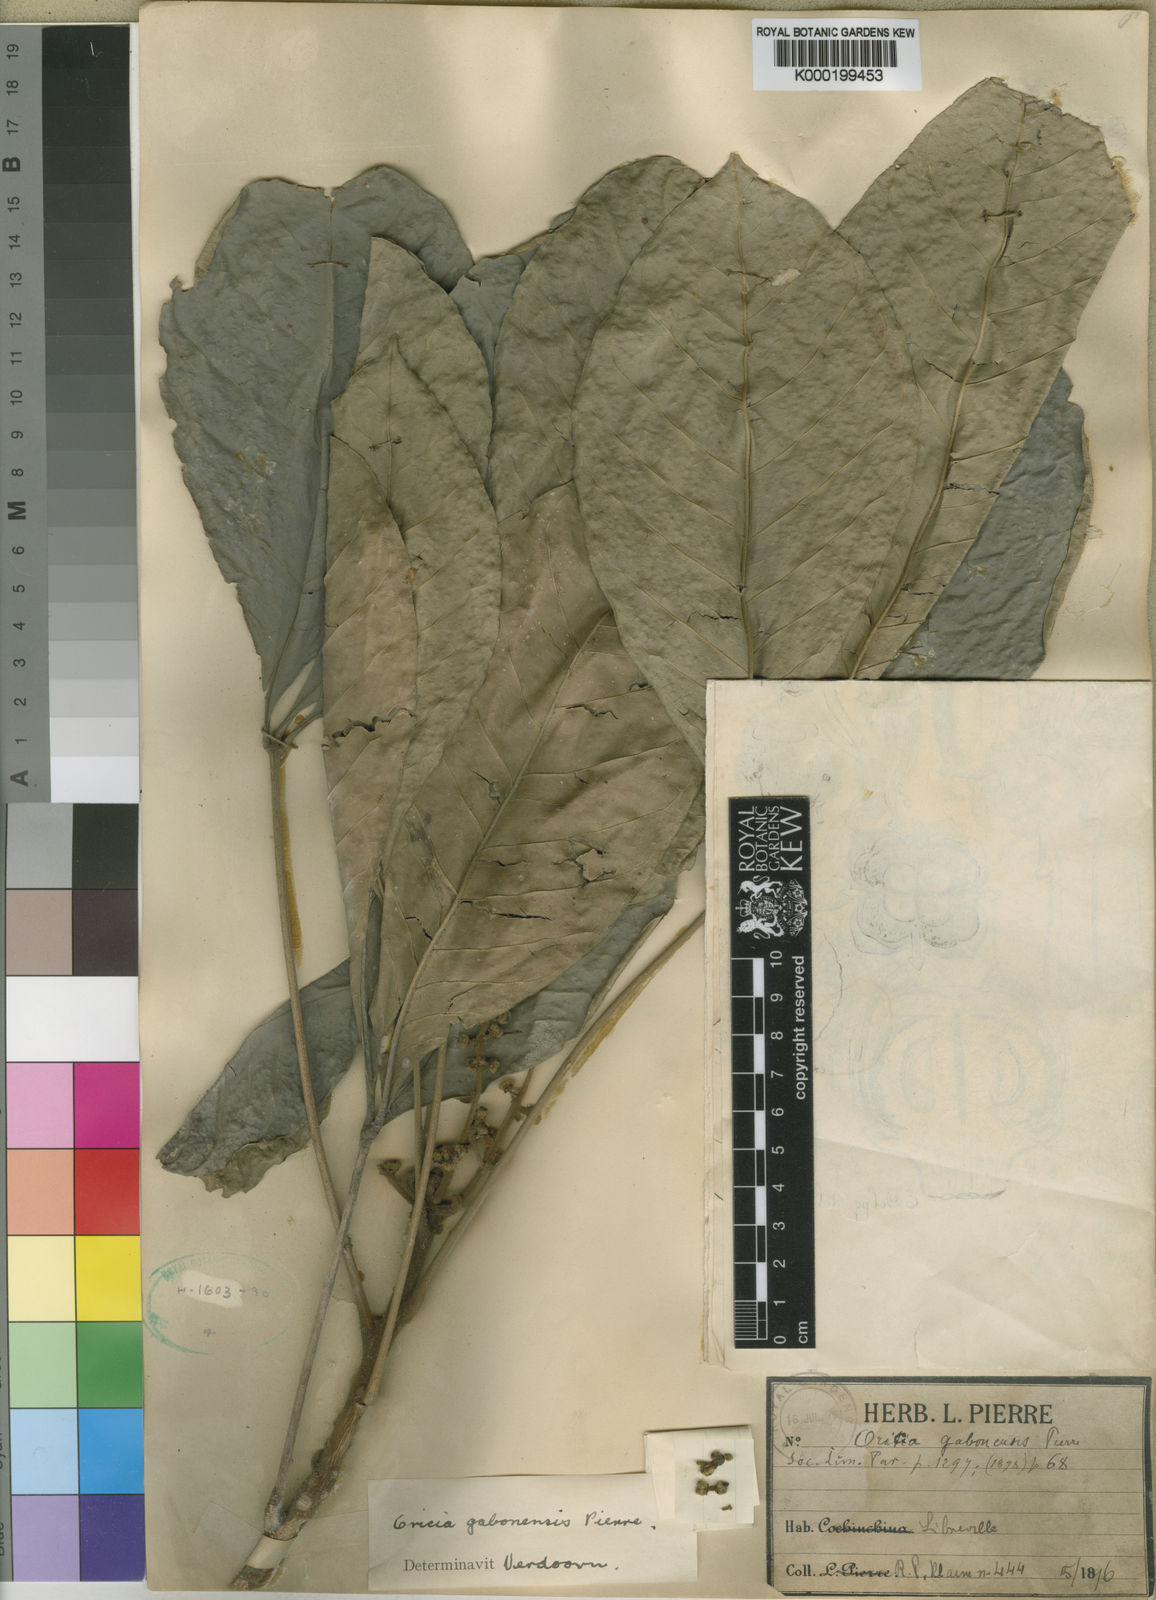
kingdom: Plantae
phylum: Tracheophyta
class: Magnoliopsida
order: Sapindales
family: Rutaceae
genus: Vepris
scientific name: Vepris gabonensis
